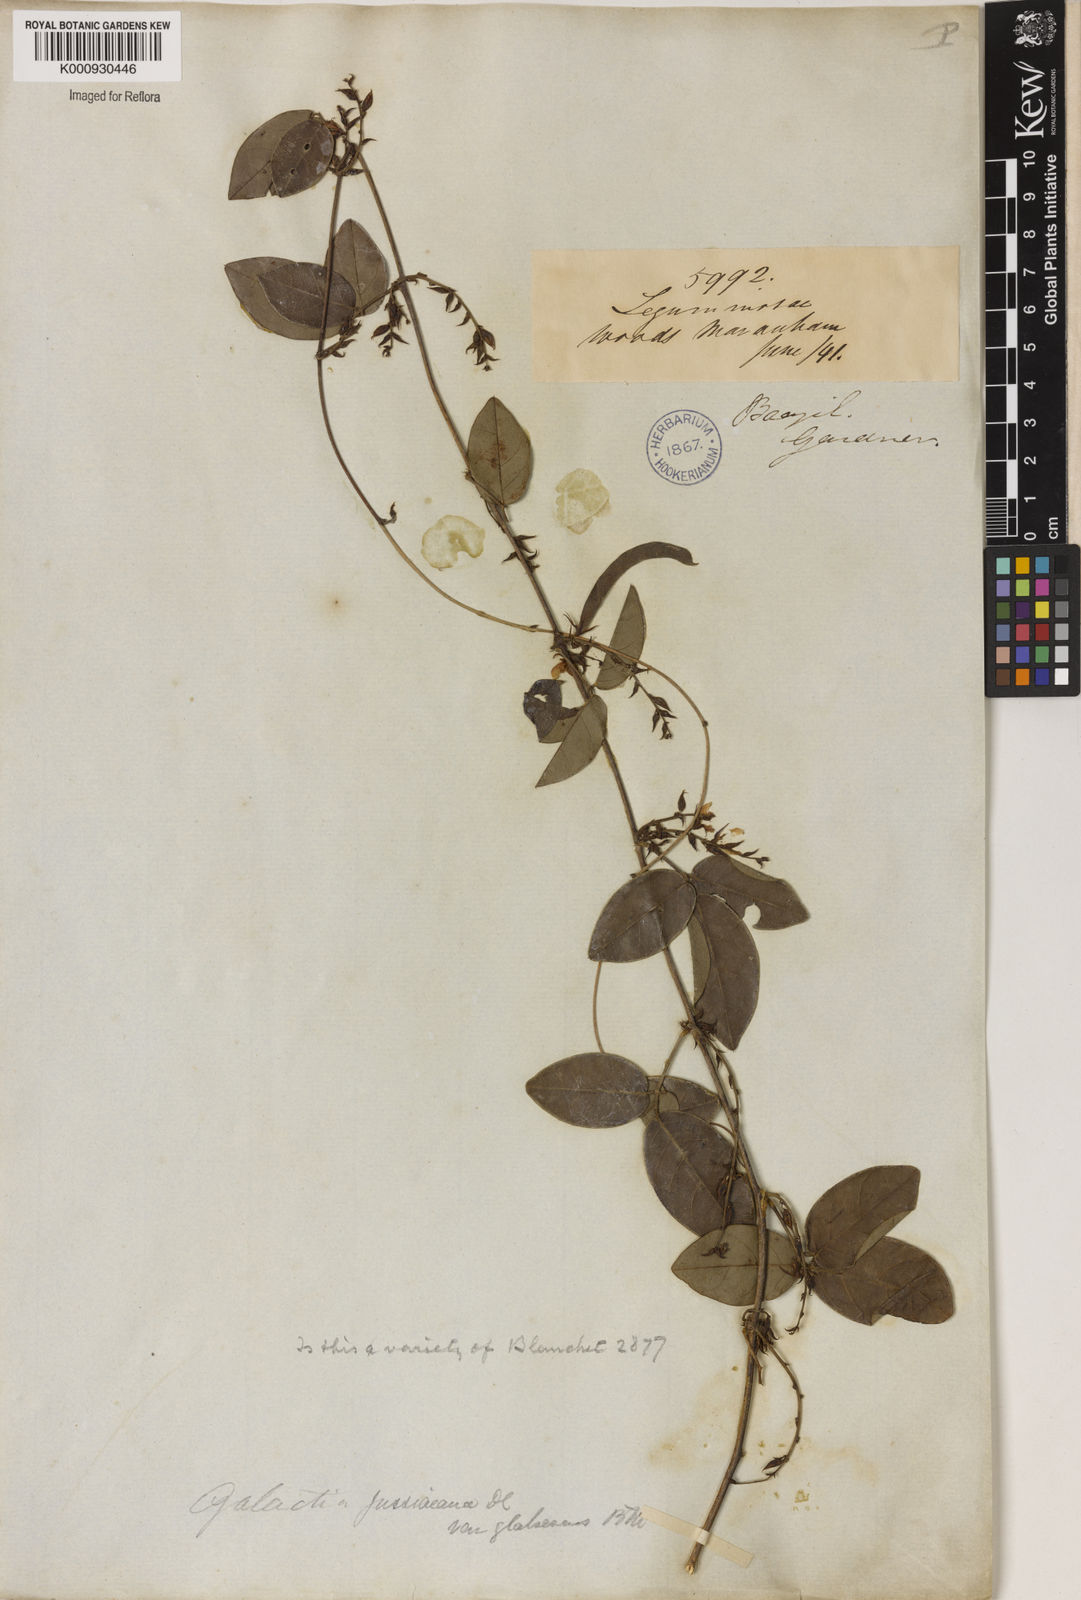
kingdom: Plantae
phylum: Tracheophyta
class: Magnoliopsida
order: Fabales
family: Fabaceae
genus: Galactia
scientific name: Galactia jussiaeana
